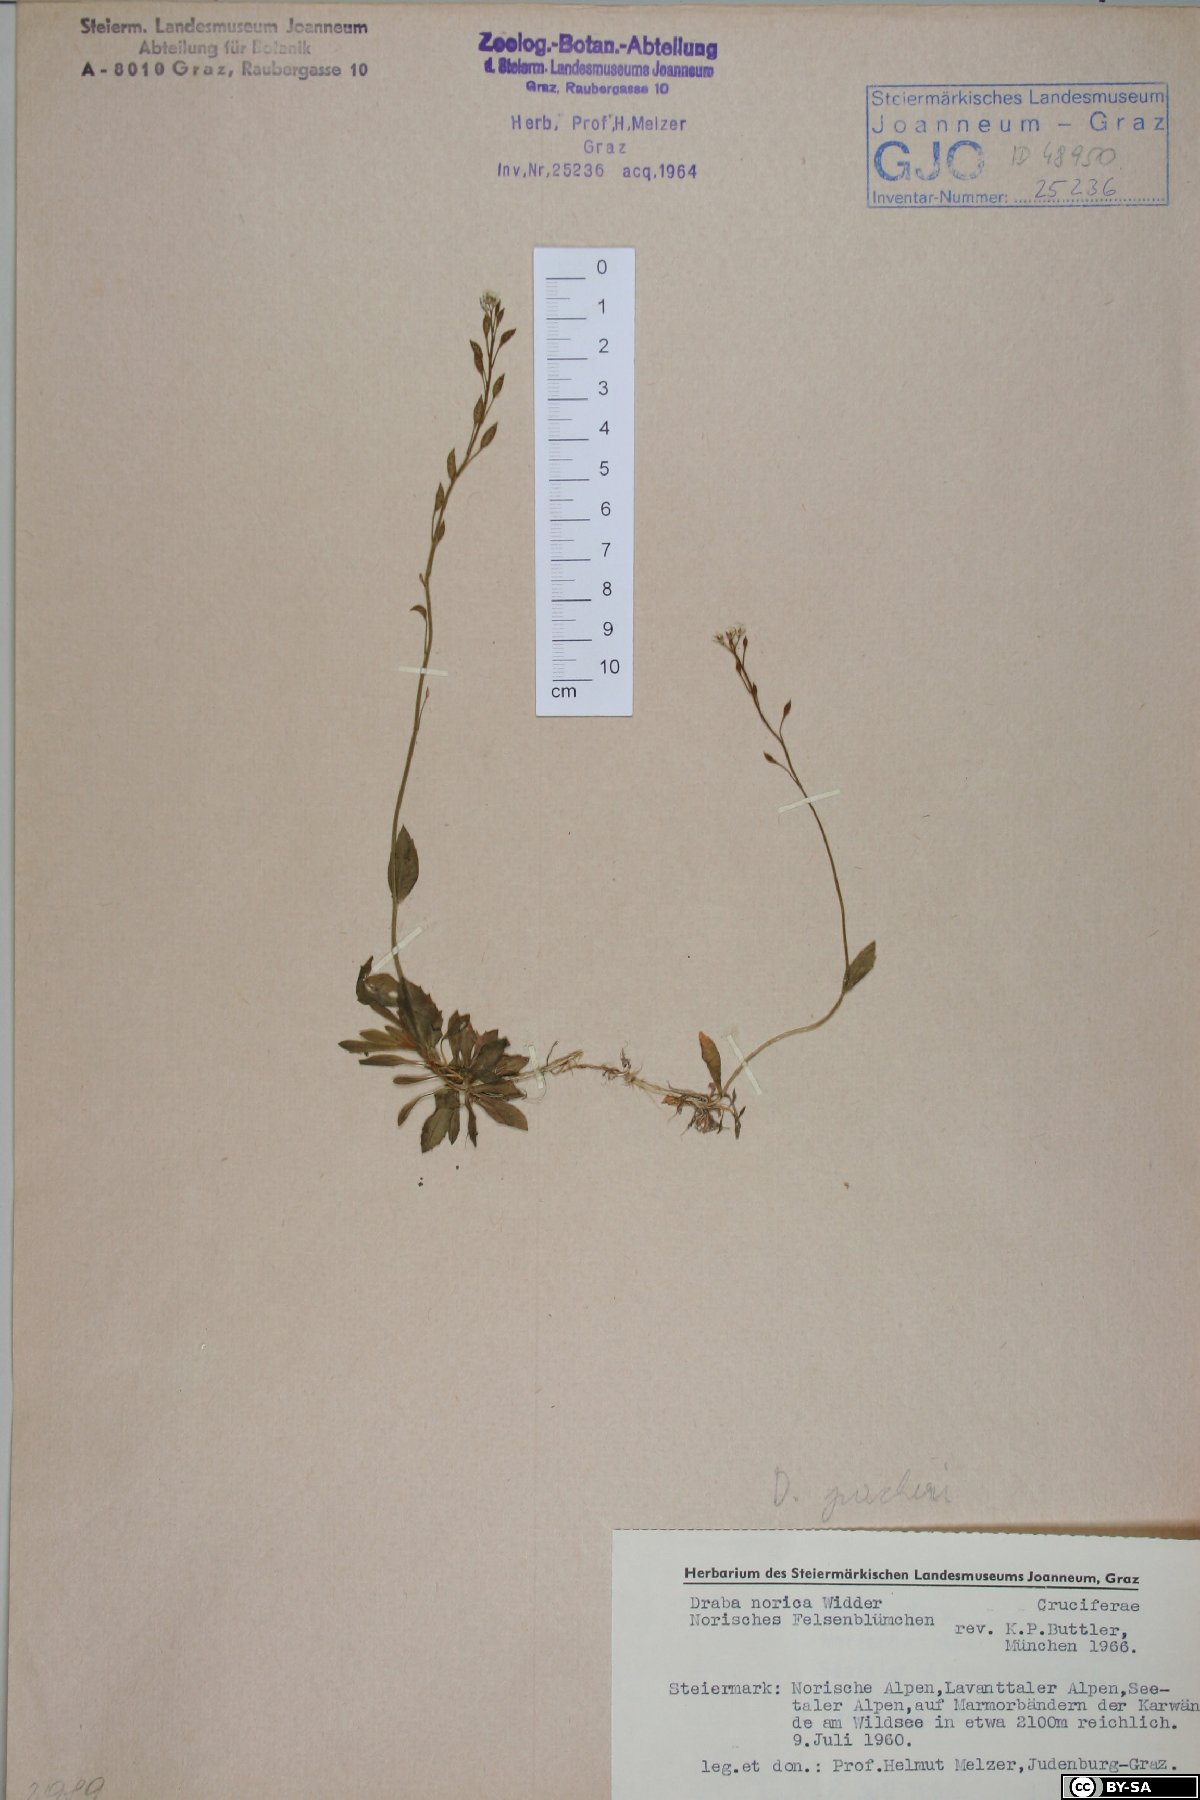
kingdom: Plantae
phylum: Tracheophyta
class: Magnoliopsida
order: Brassicales
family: Brassicaceae
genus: Draba
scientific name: Draba pacheri
